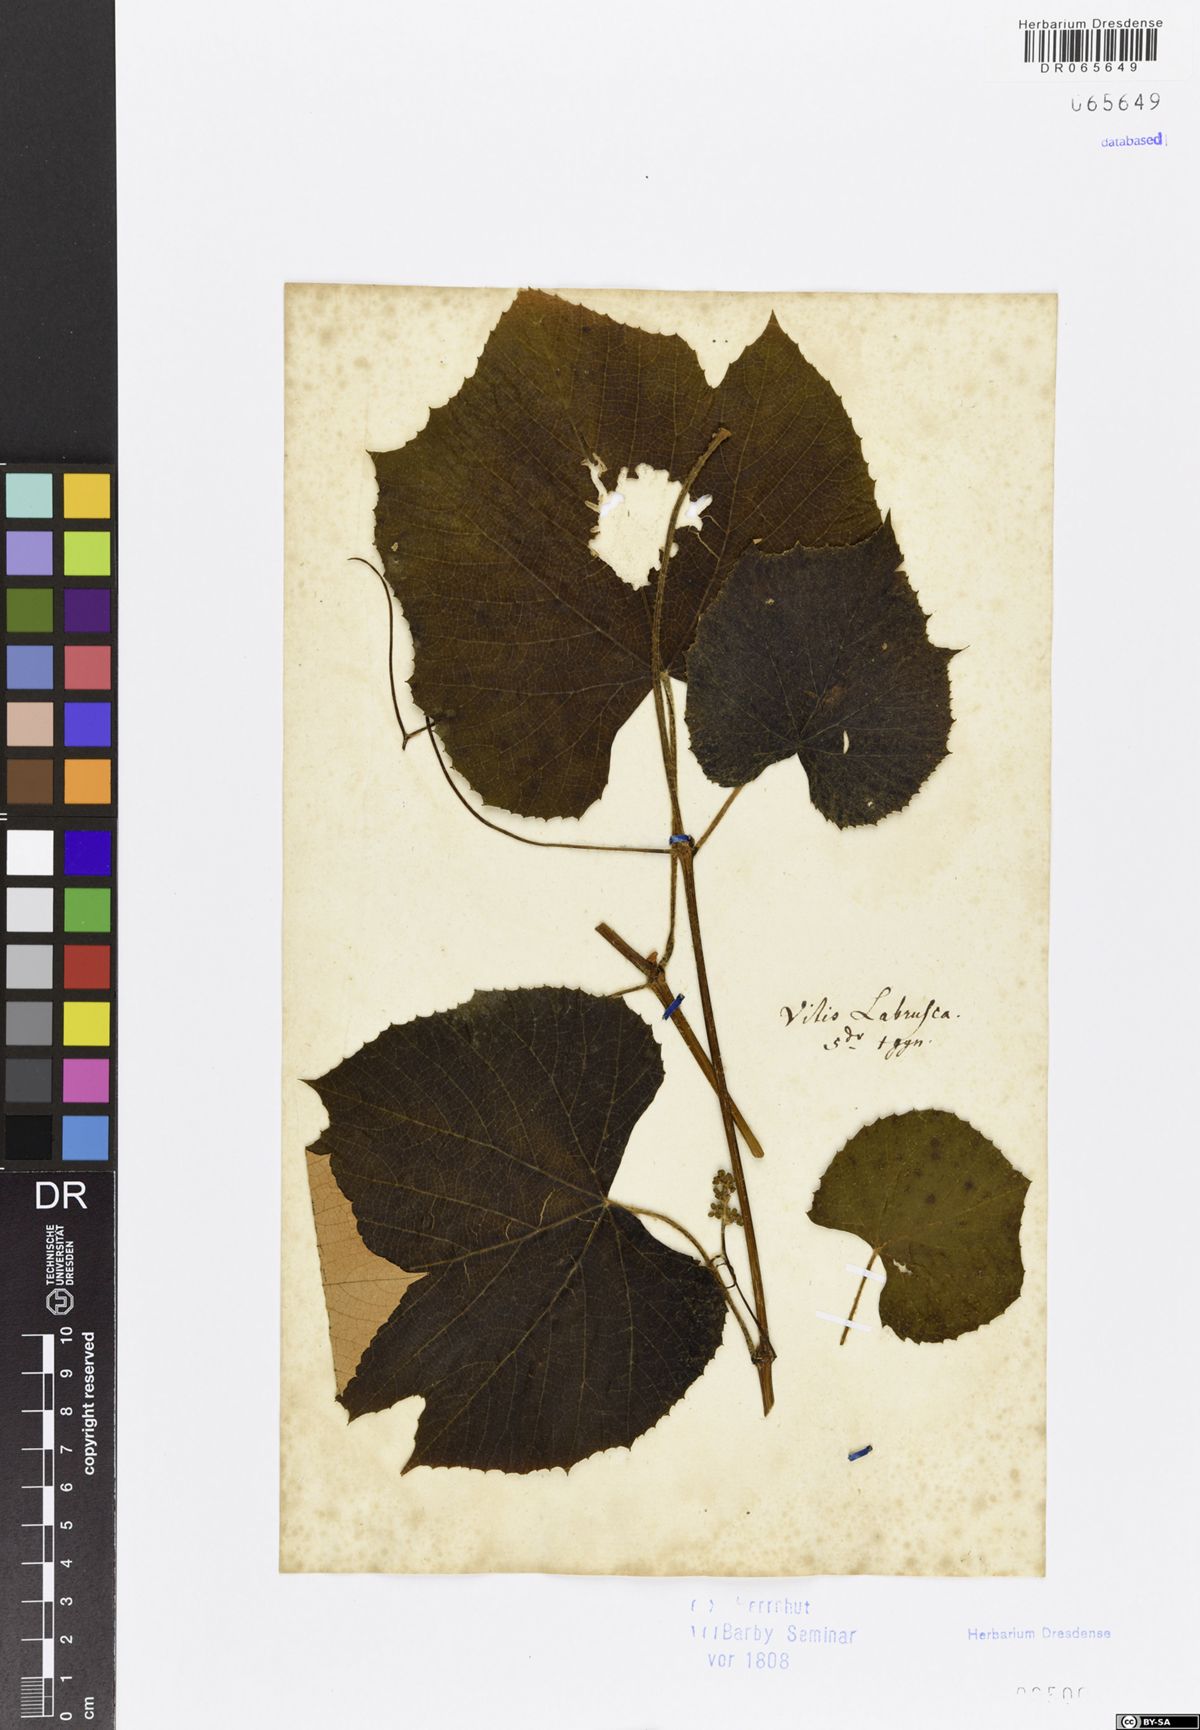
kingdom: Plantae
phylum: Tracheophyta
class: Magnoliopsida
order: Vitales
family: Vitaceae
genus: Vitis
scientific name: Vitis labrusca
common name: Concord grape
